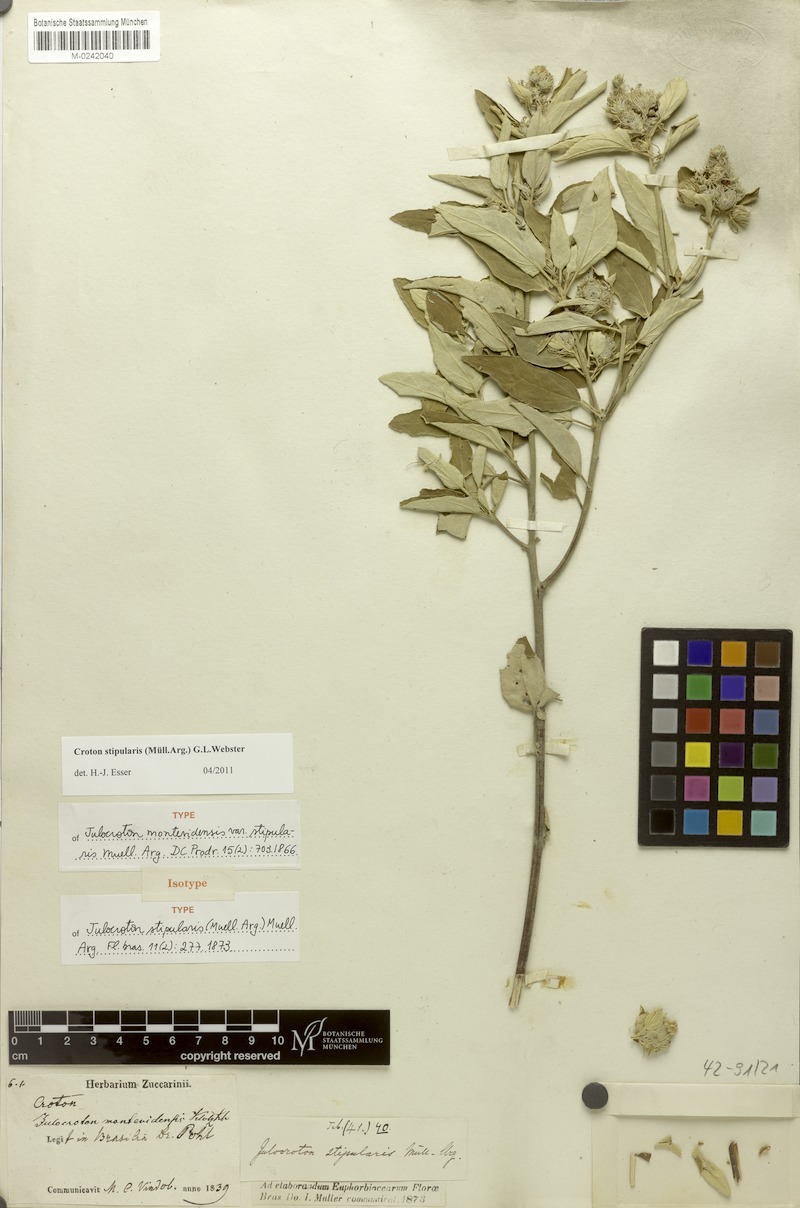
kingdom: Plantae
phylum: Tracheophyta
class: Magnoliopsida
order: Malpighiales
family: Euphorbiaceae
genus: Croton
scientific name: Croton stipularis
